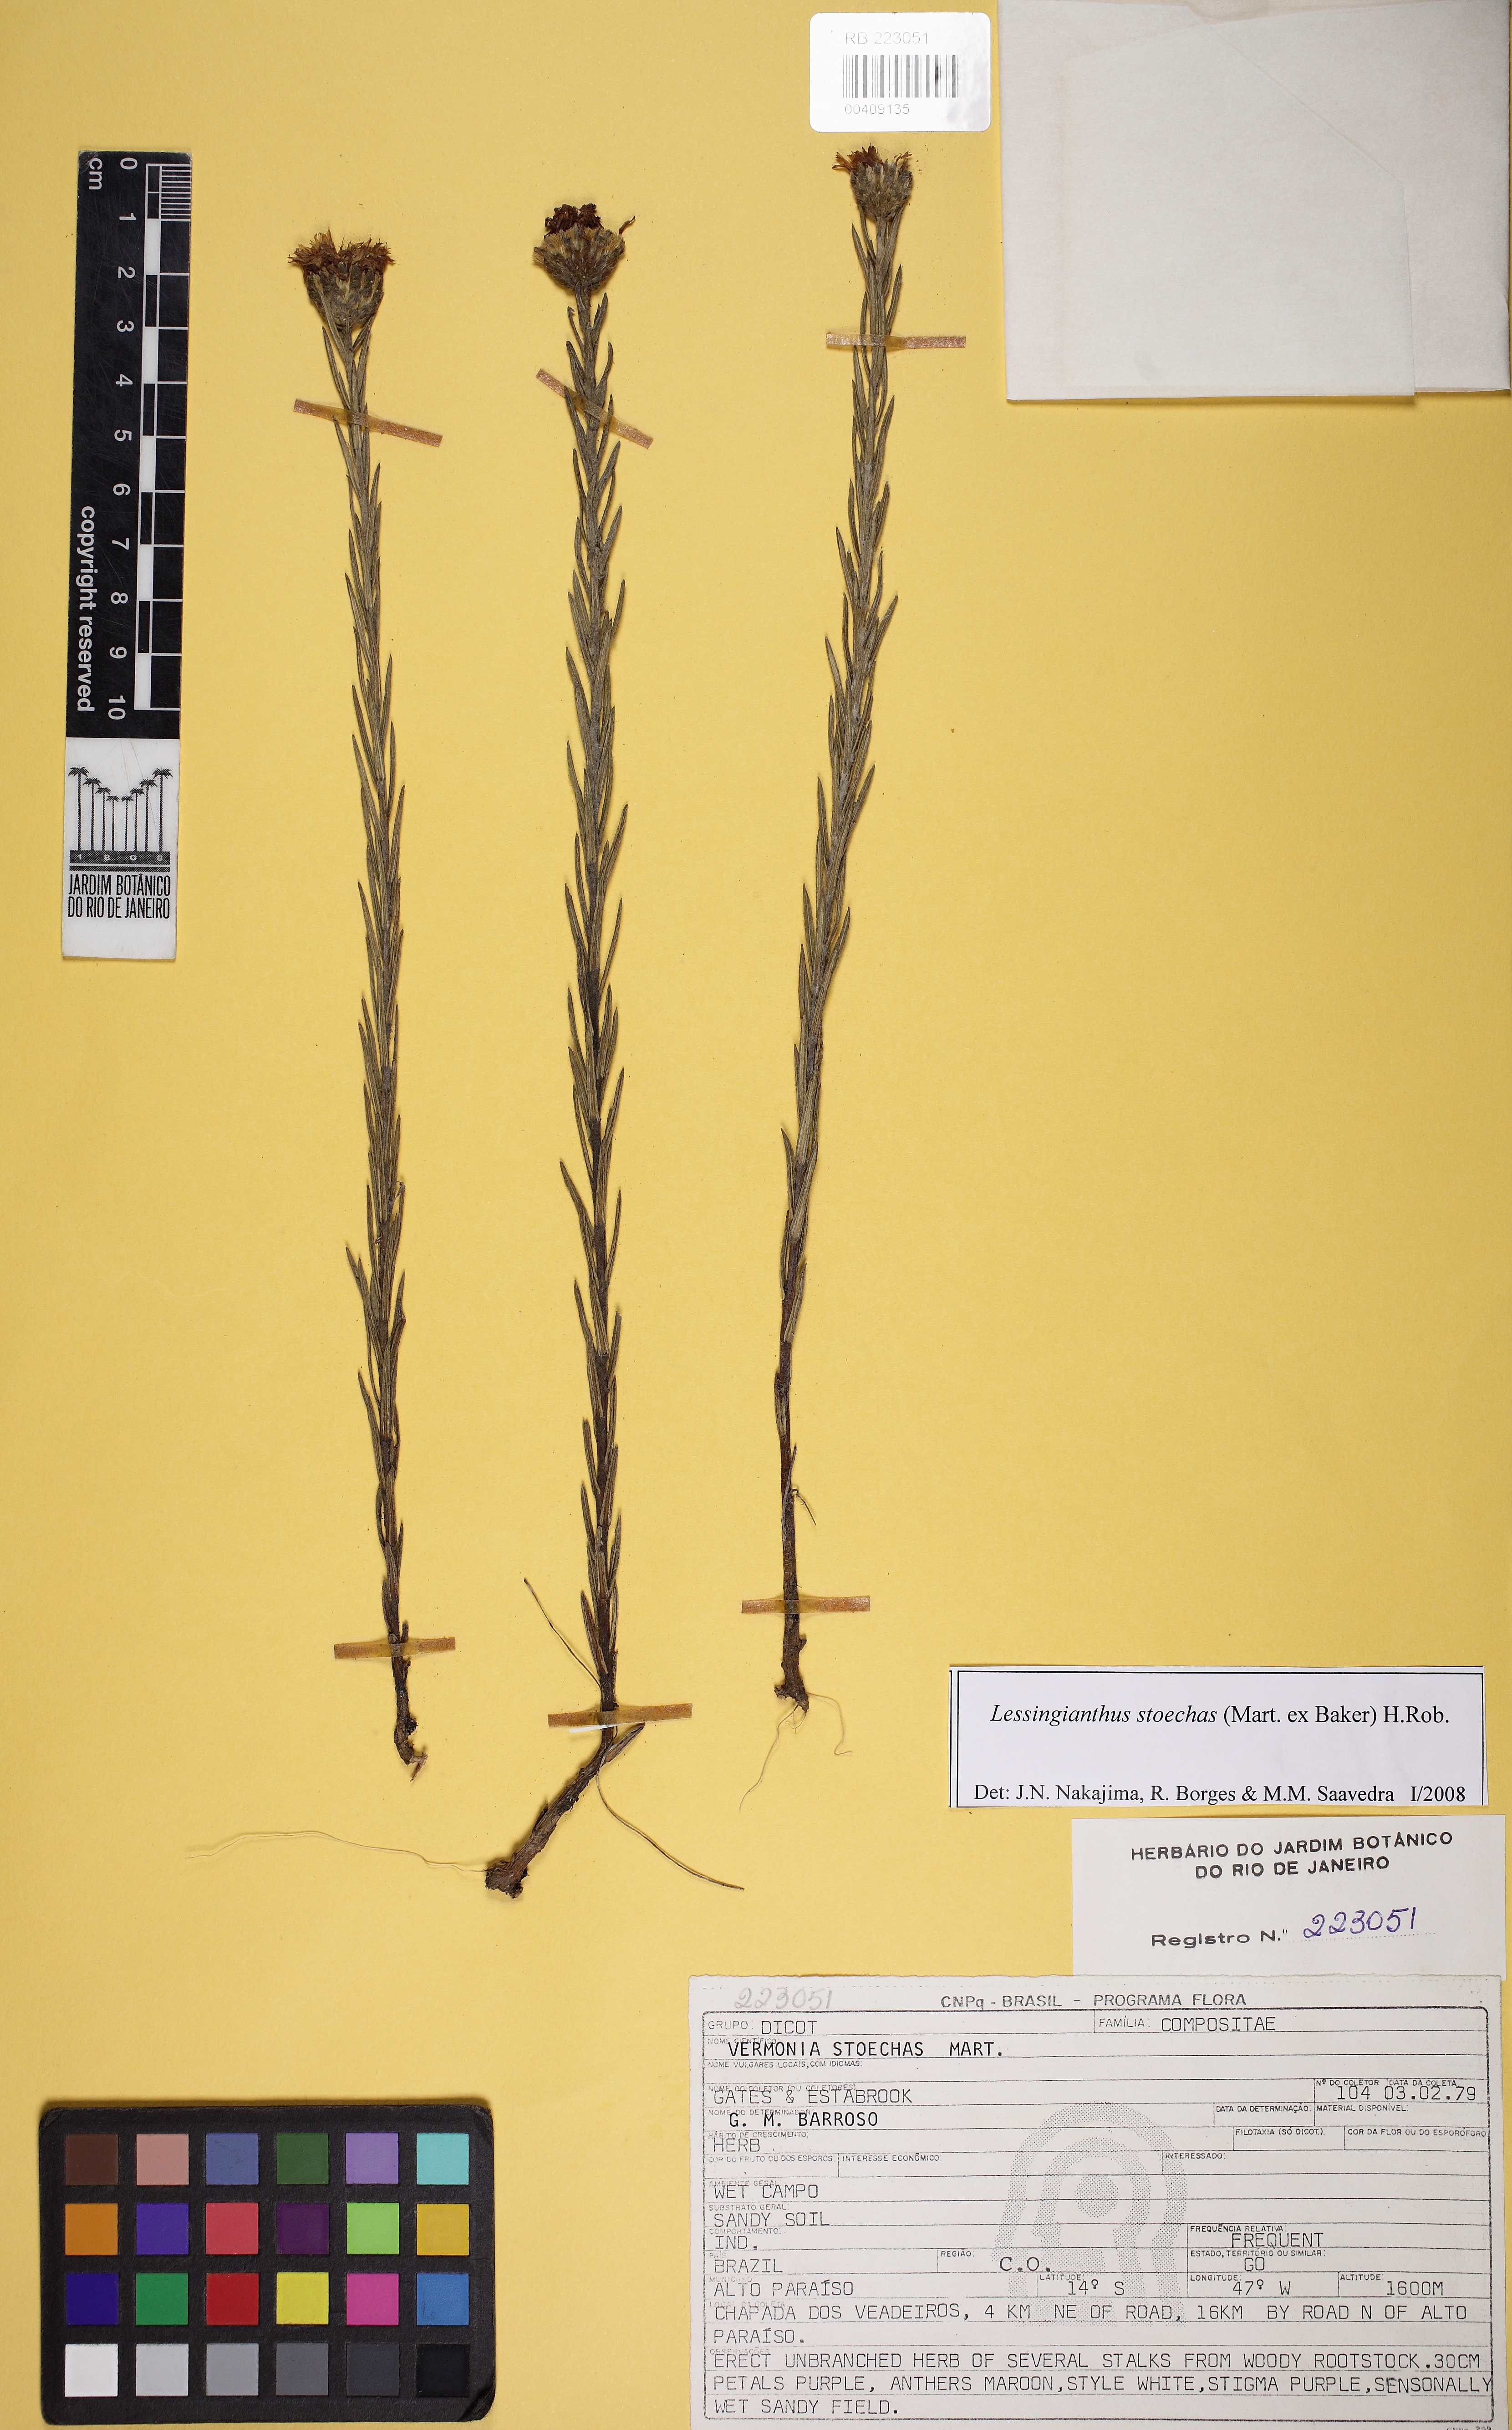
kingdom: Plantae
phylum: Tracheophyta
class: Magnoliopsida
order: Asterales
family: Asteraceae
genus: Lessingianthus
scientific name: Lessingianthus stoechas
